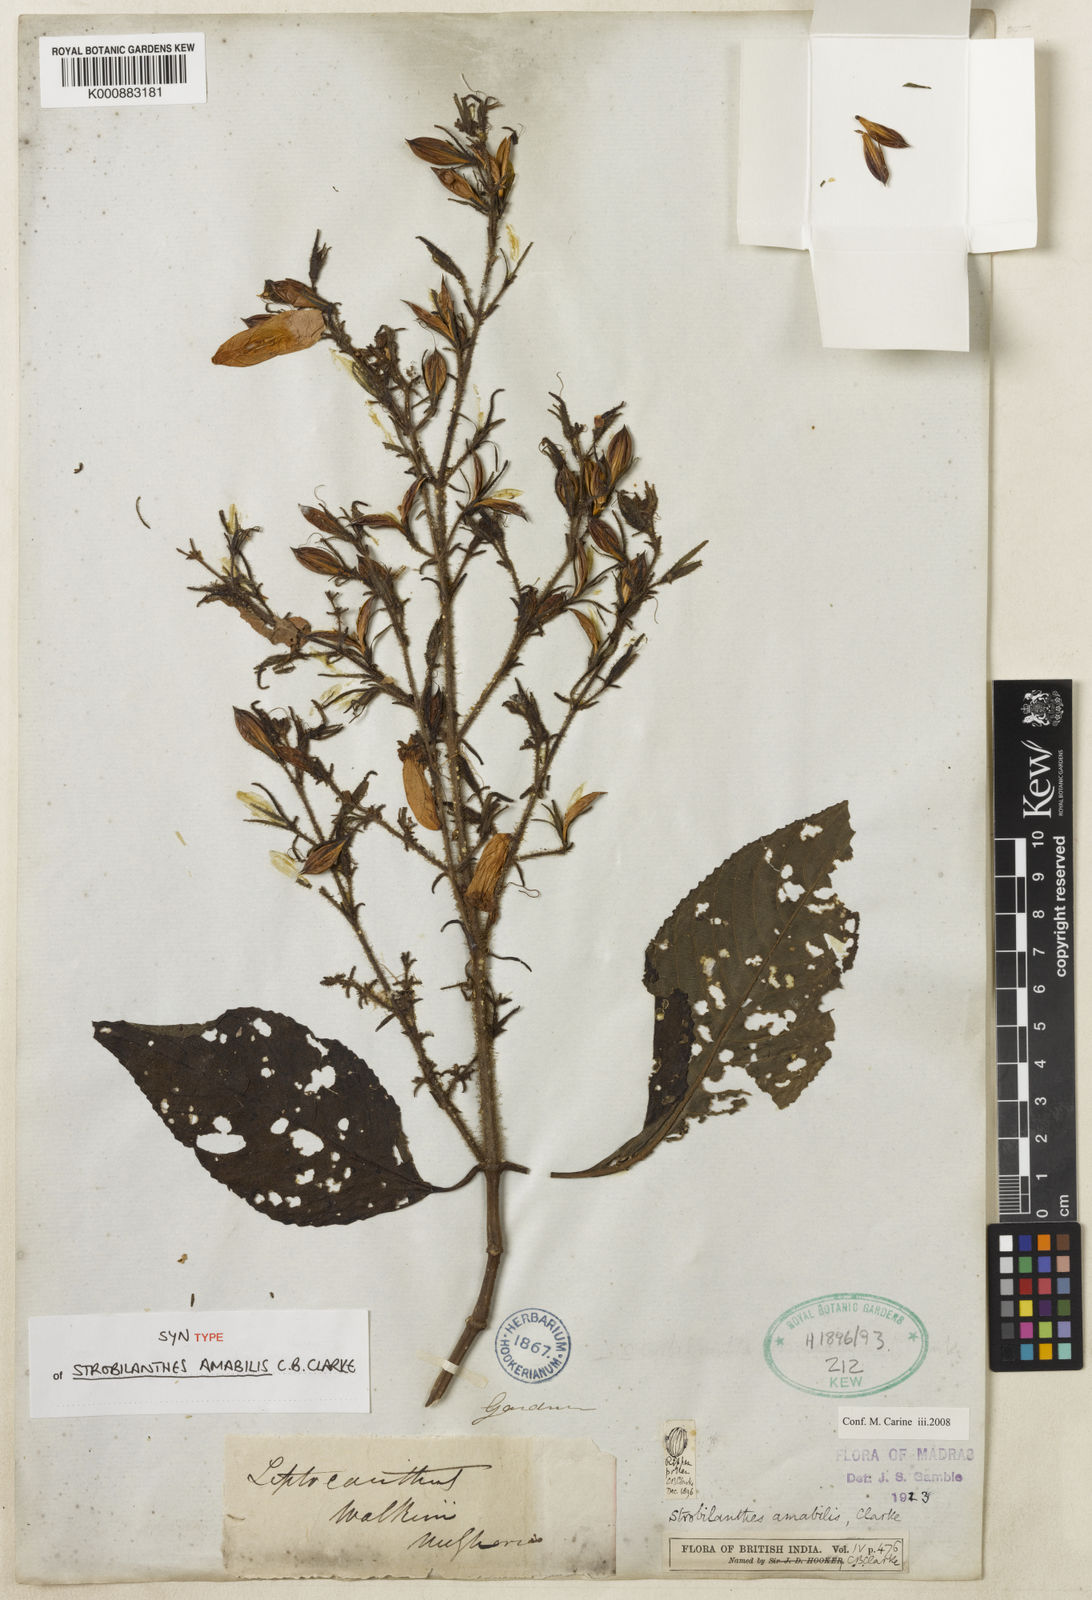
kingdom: Plantae
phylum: Tracheophyta
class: Magnoliopsida
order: Lamiales
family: Acanthaceae
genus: Strobilanthes
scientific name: Strobilanthes amabilis
